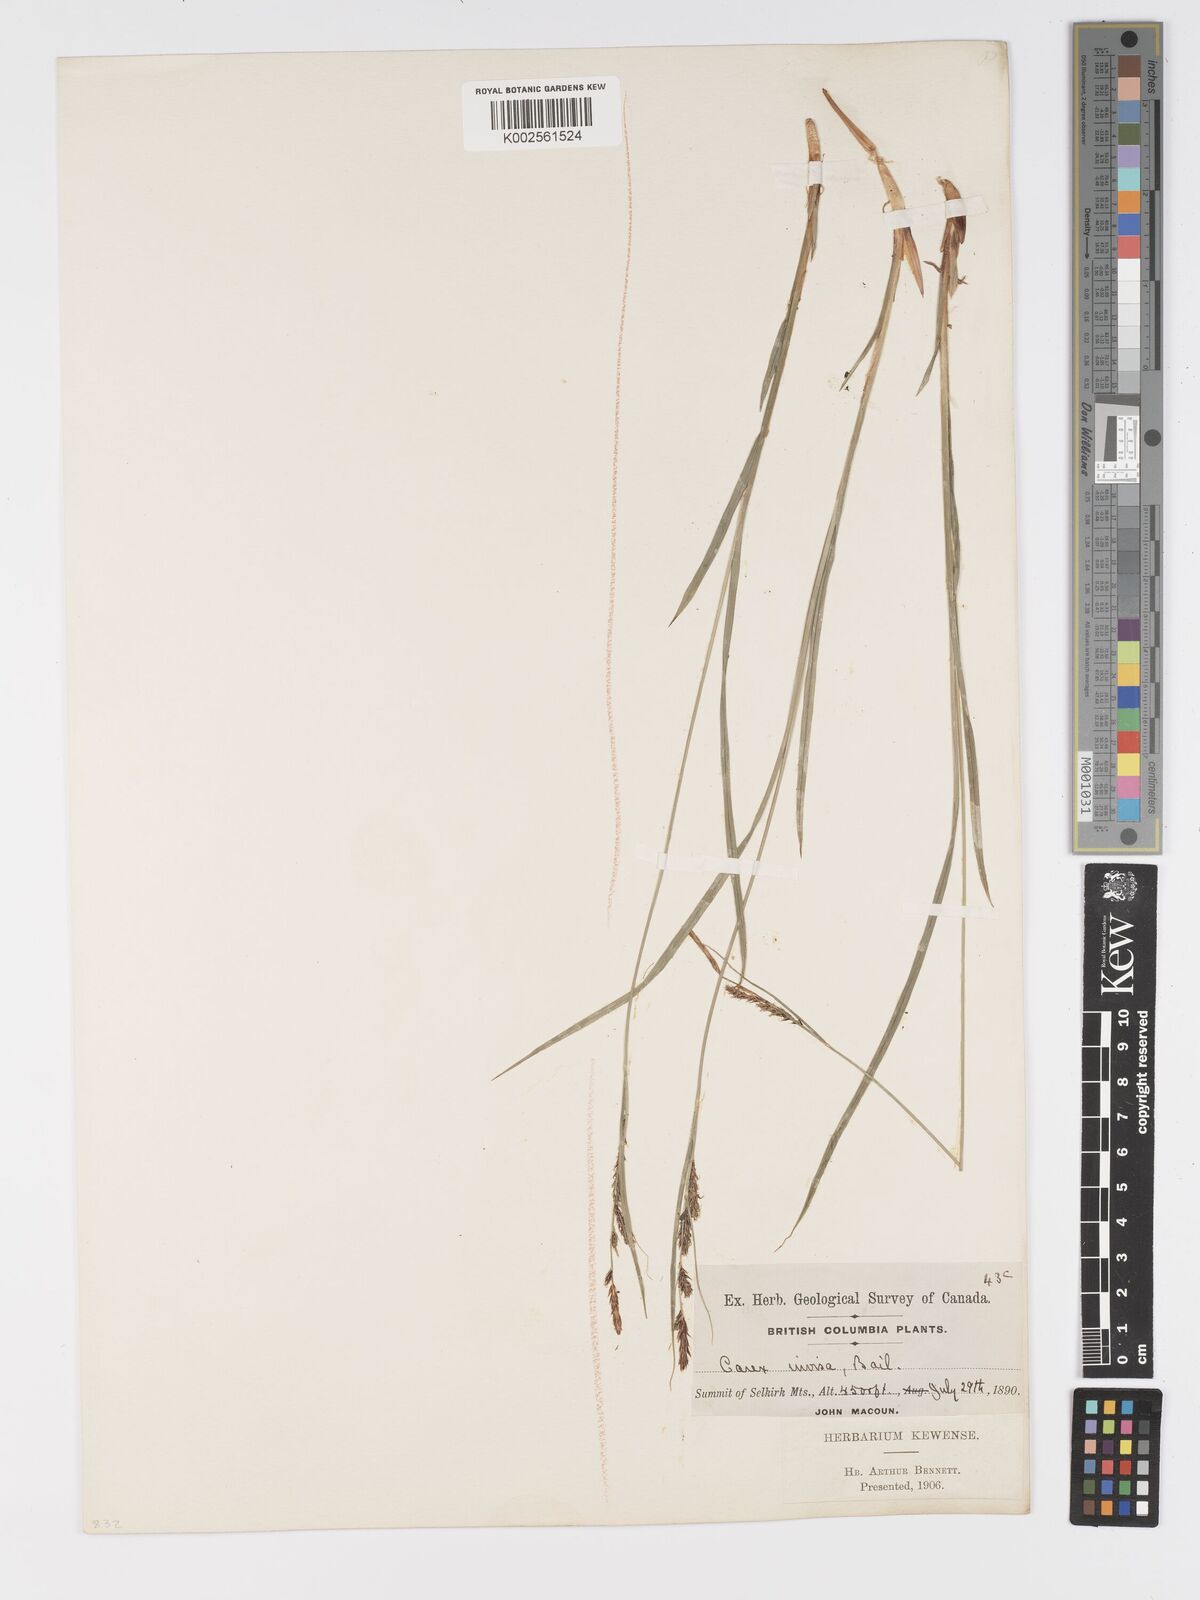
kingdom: Plantae
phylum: Tracheophyta
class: Liliopsida
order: Poales
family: Cyperaceae
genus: Carex
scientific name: Carex spectabilis
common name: Northwestern showy sedge
